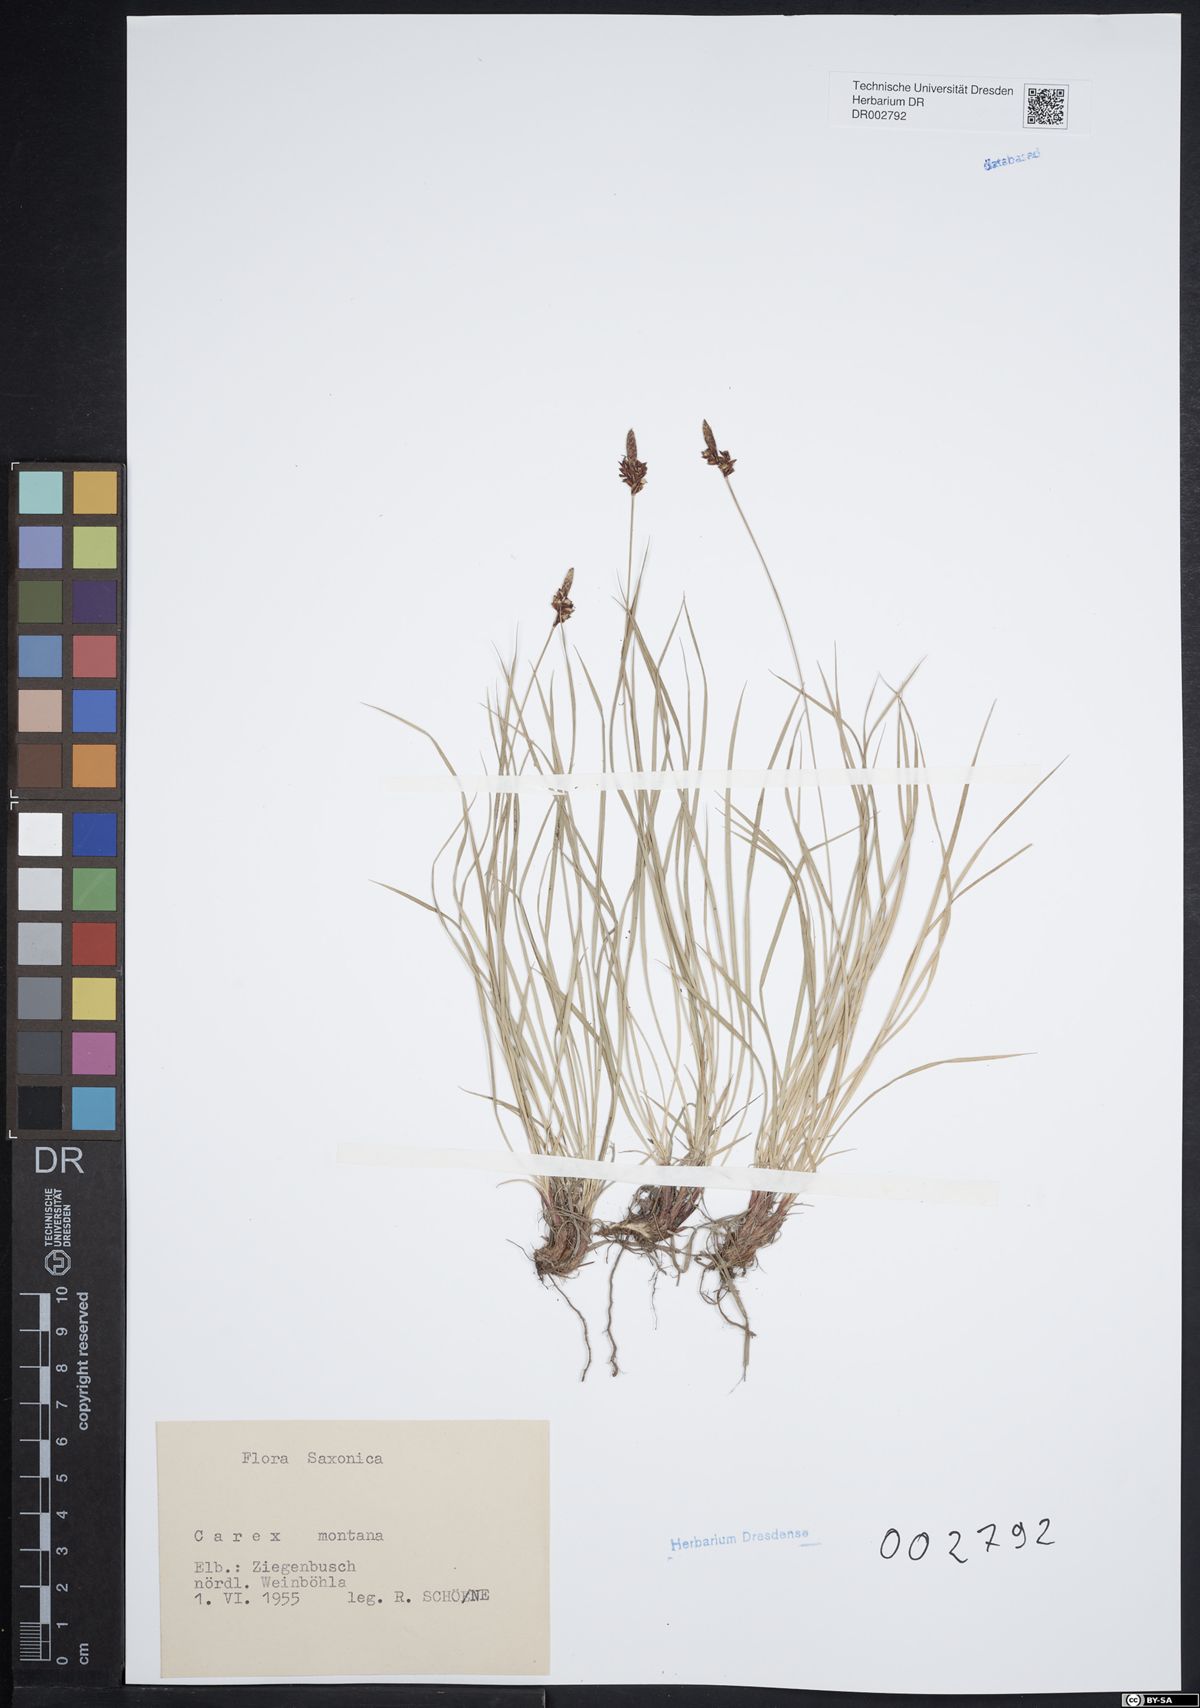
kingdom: Plantae
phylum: Tracheophyta
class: Liliopsida
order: Poales
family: Cyperaceae
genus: Carex
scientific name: Carex montana
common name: Soft-leaved sedge
